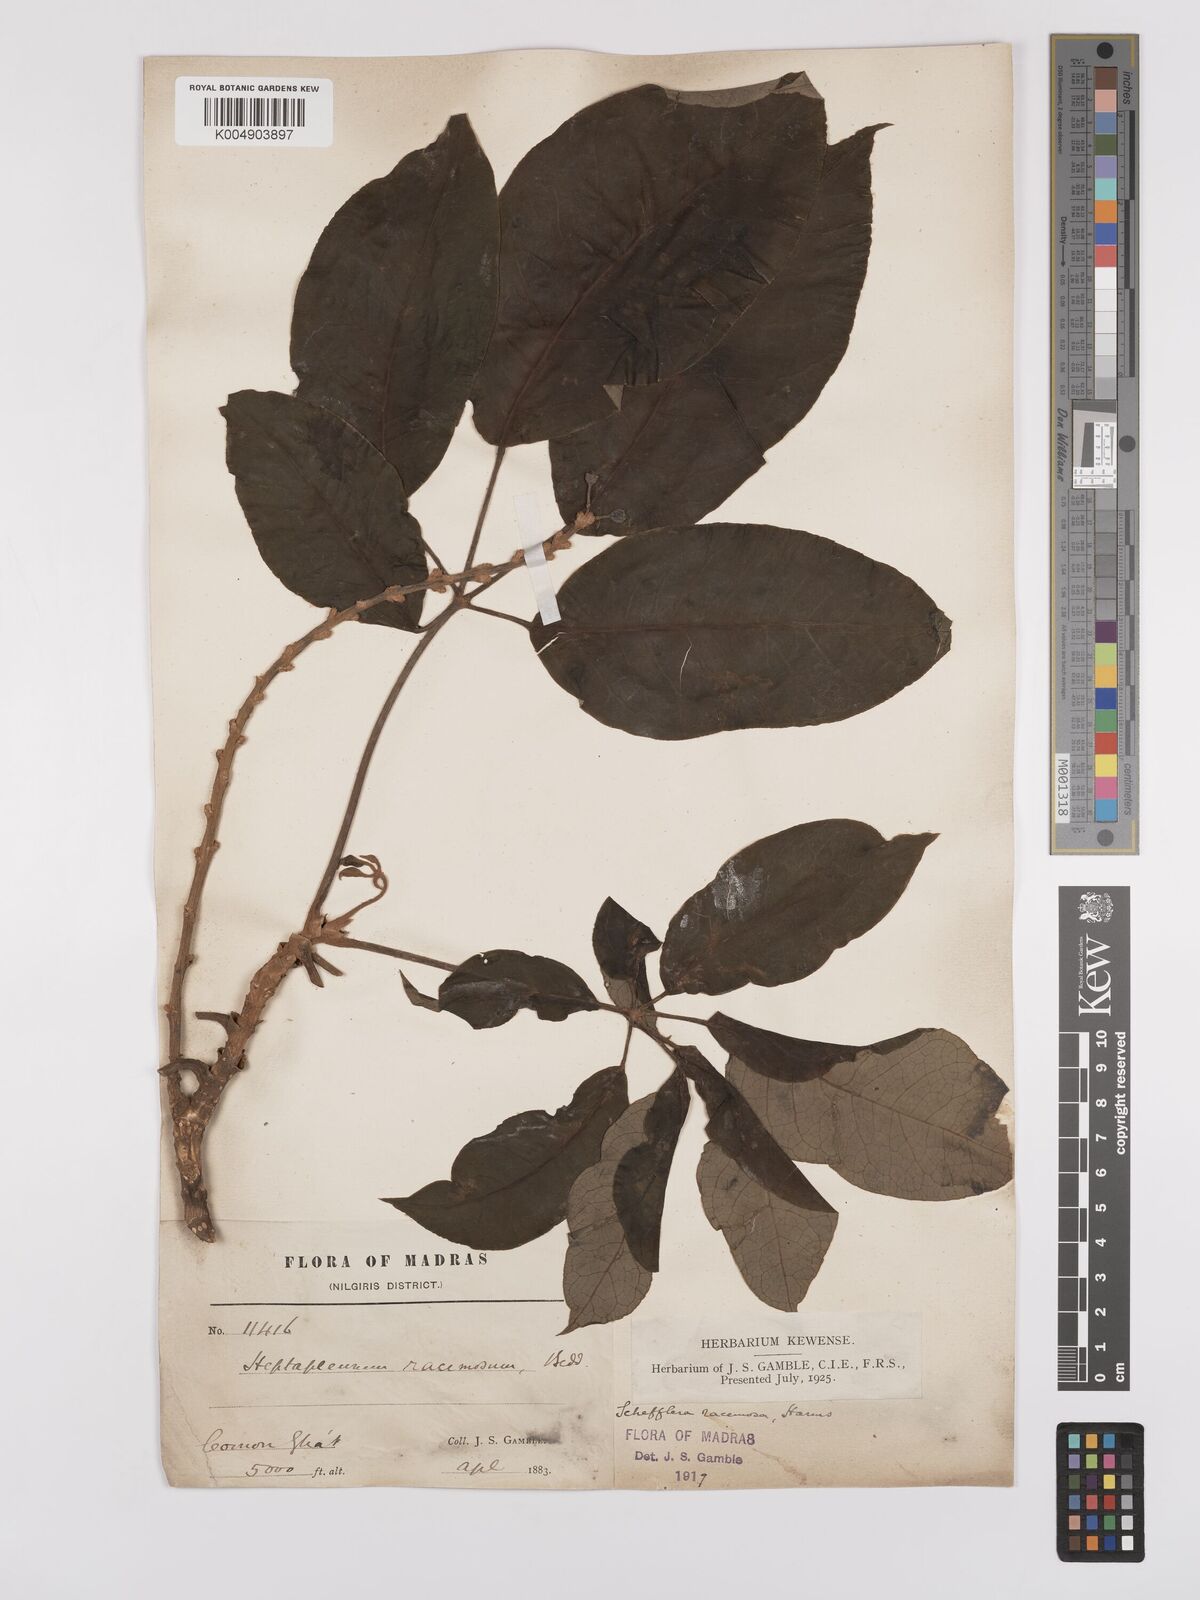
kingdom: Plantae
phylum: Tracheophyta
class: Magnoliopsida
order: Apiales
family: Araliaceae
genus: Heptapleurum
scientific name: Heptapleurum
